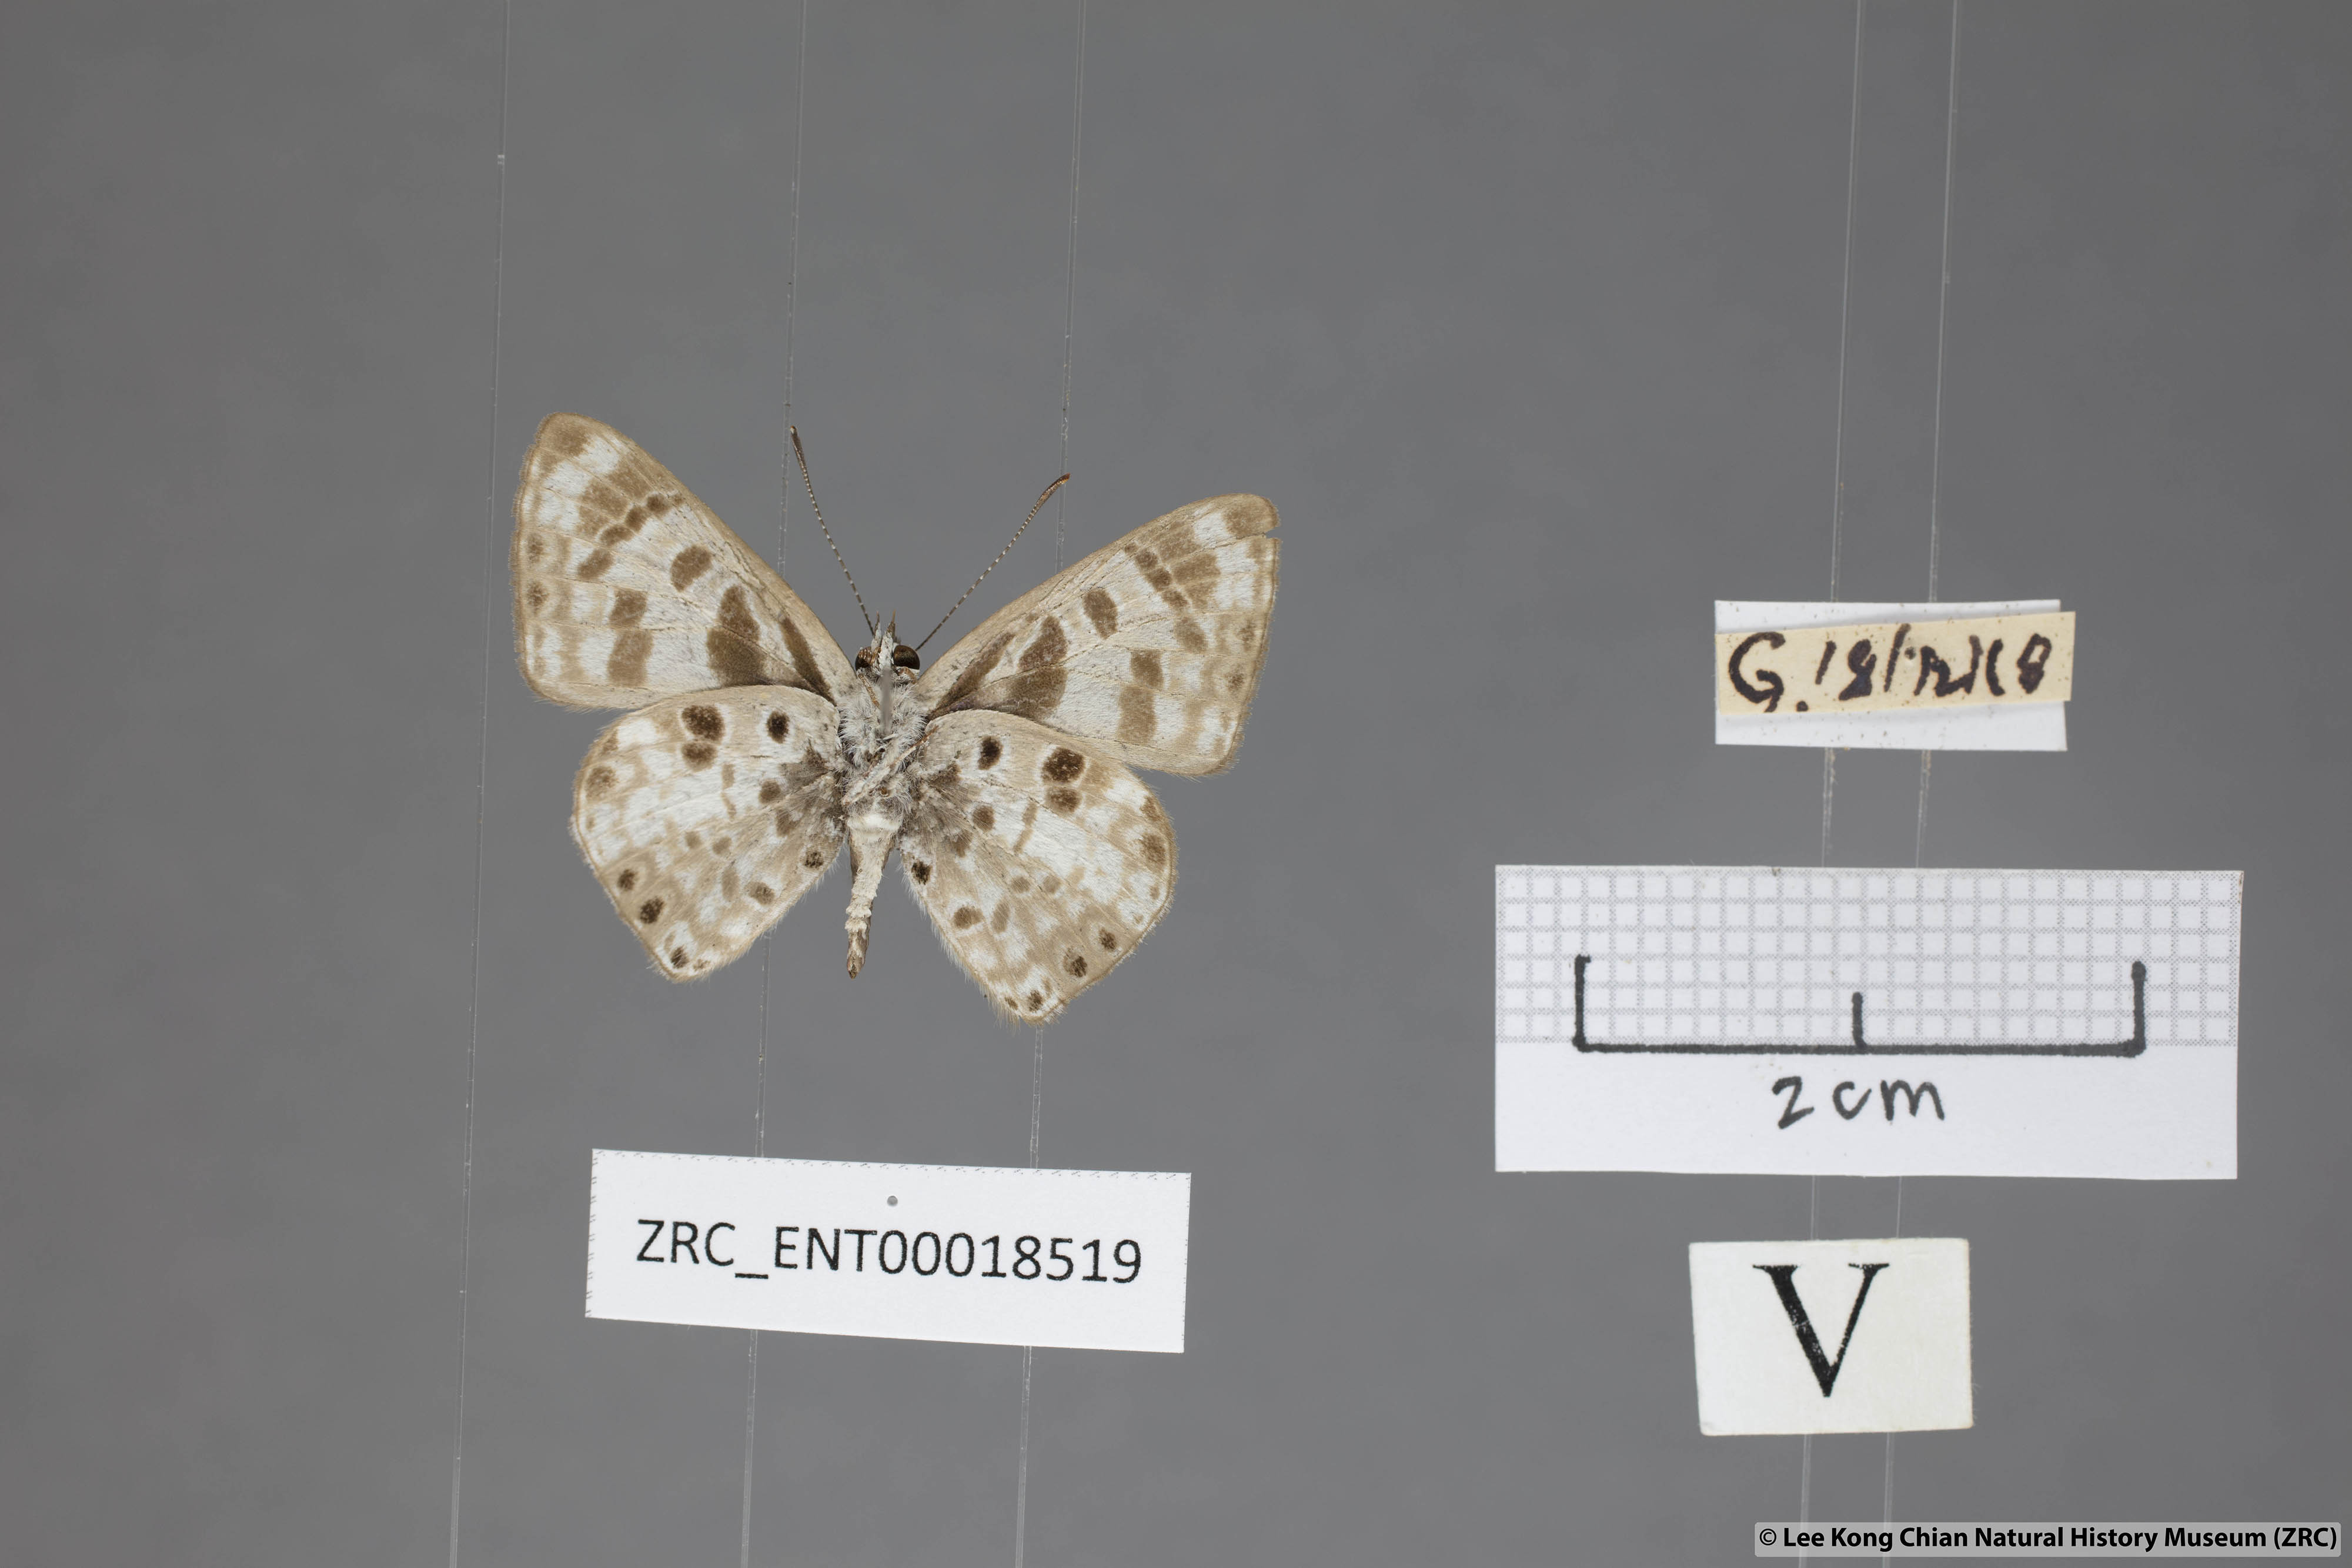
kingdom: Animalia
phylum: Arthropoda
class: Insecta
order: Lepidoptera
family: Lycaenidae
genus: Niphanda
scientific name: Niphanda cymbia
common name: Small pointed pierrot
